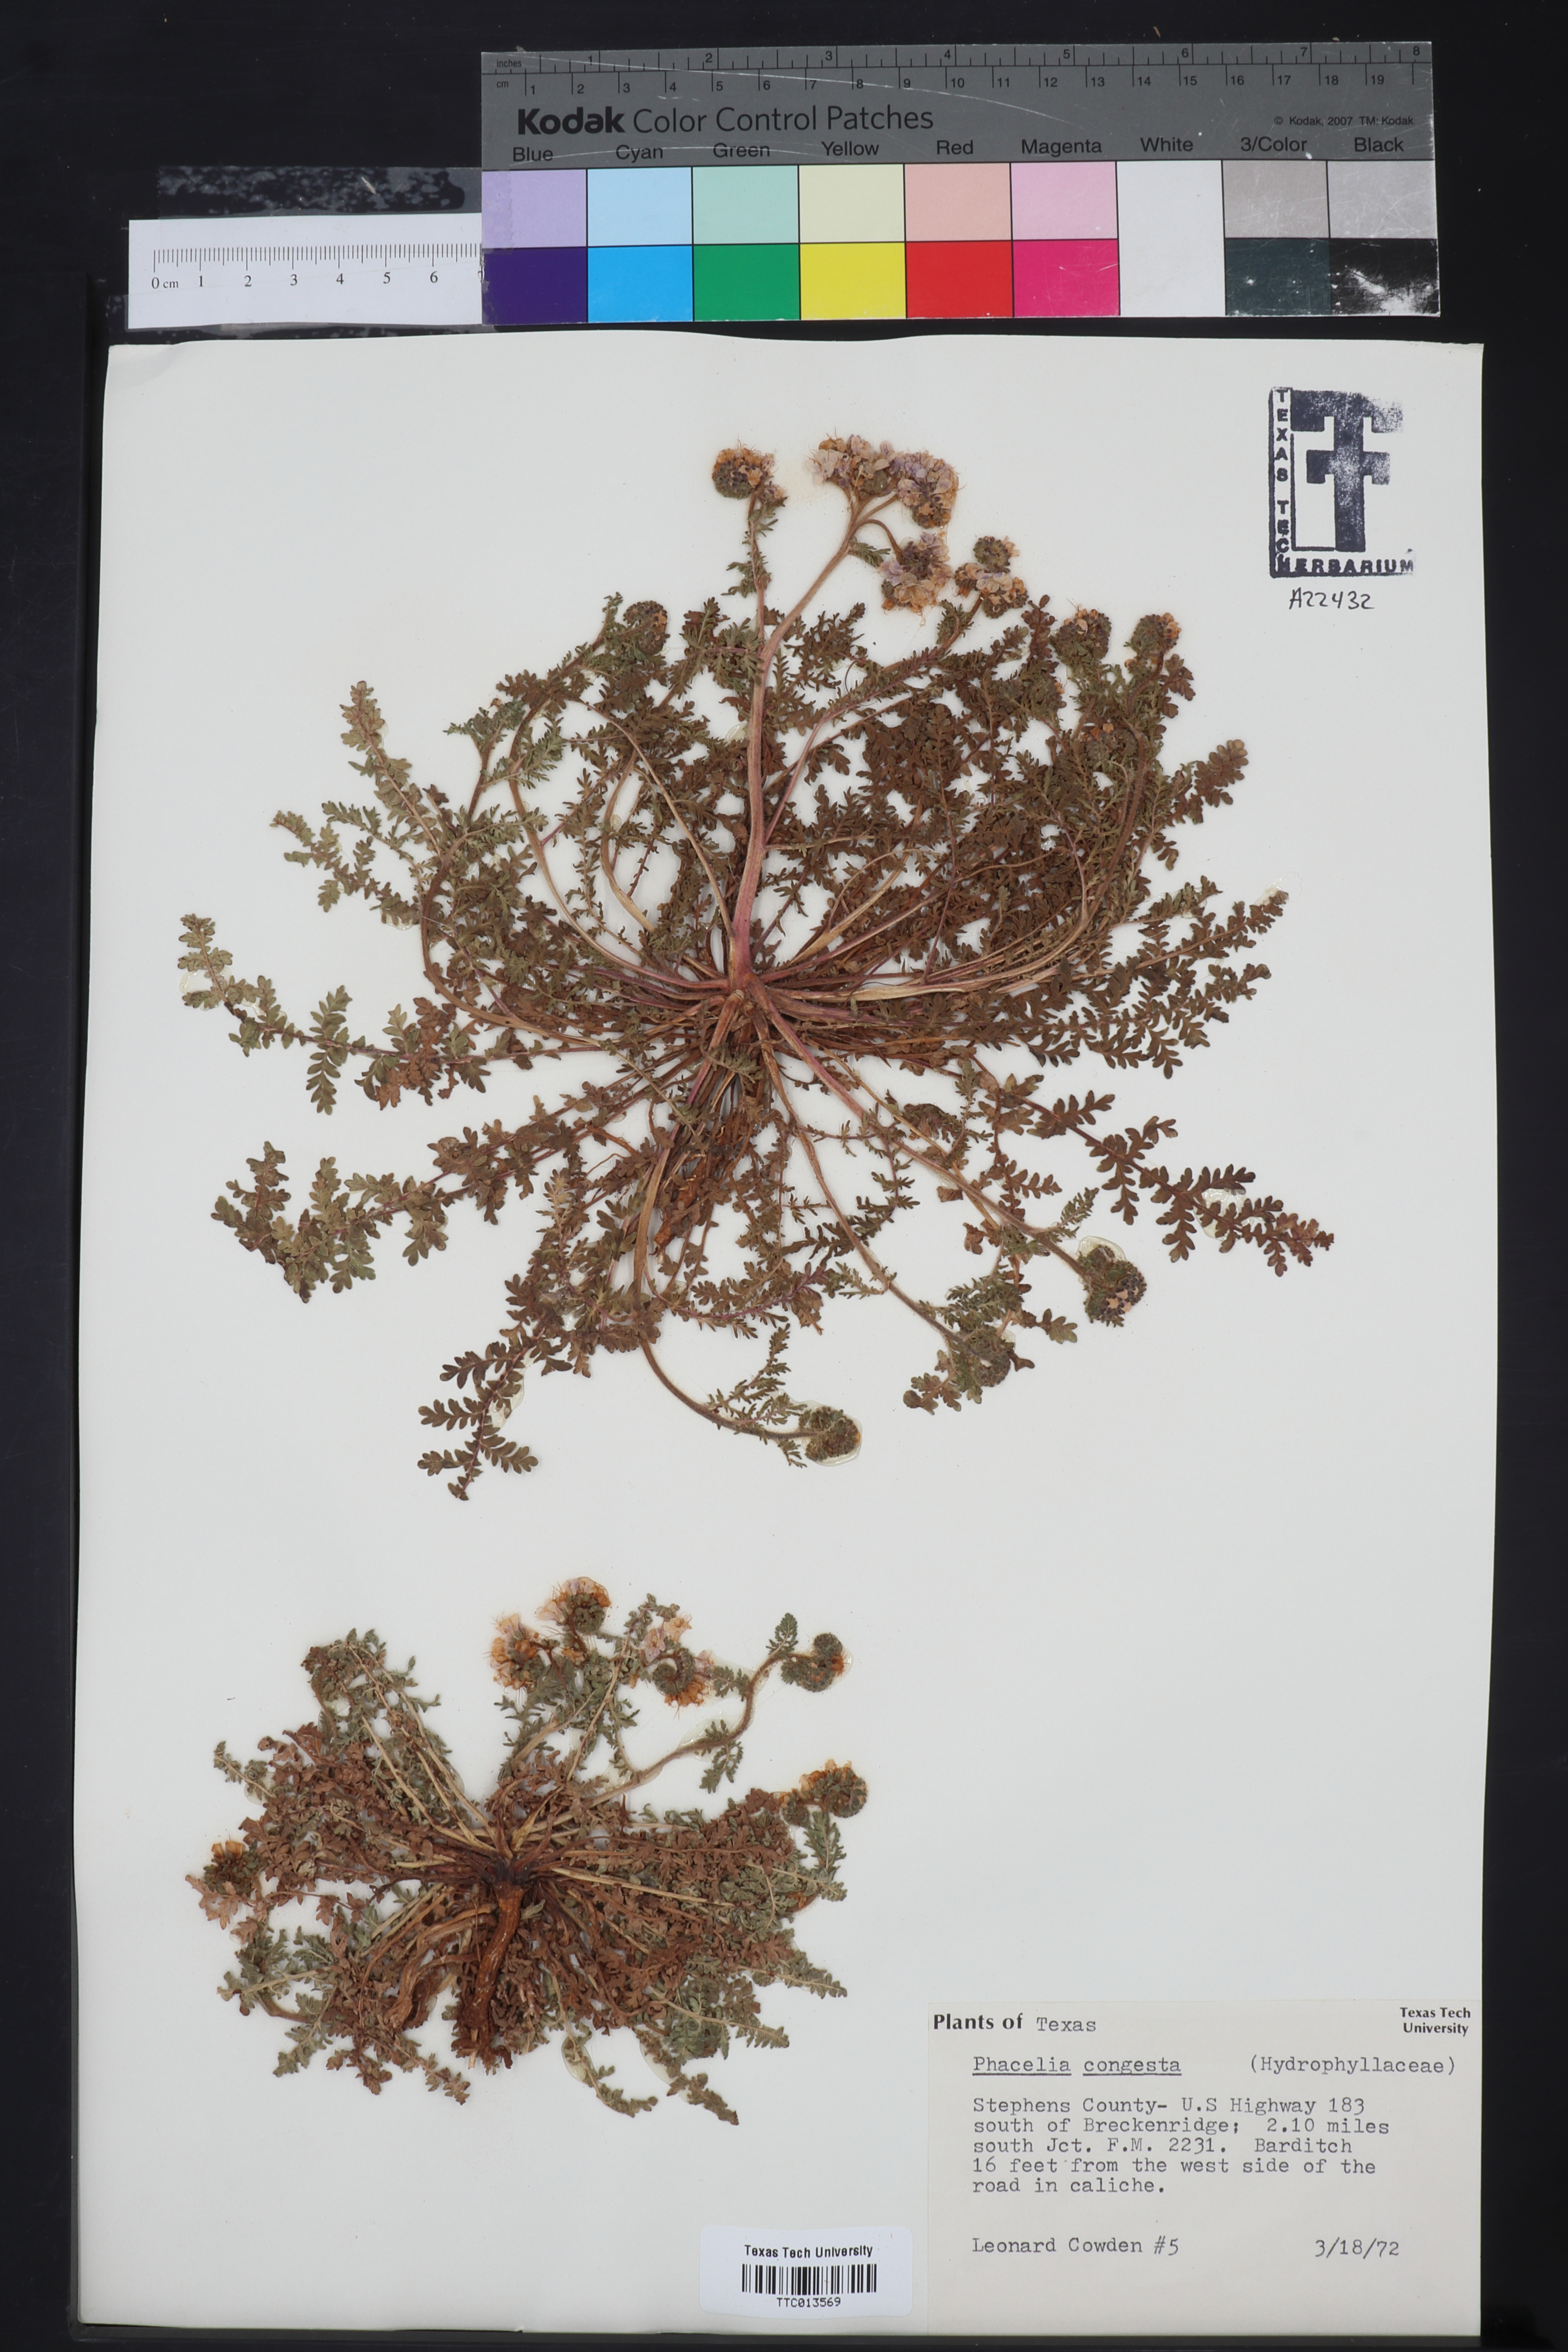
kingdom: Plantae
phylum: Tracheophyta
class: Magnoliopsida
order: Boraginales
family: Hydrophyllaceae
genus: Phacelia
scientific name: Phacelia congesta
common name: Blue curls
